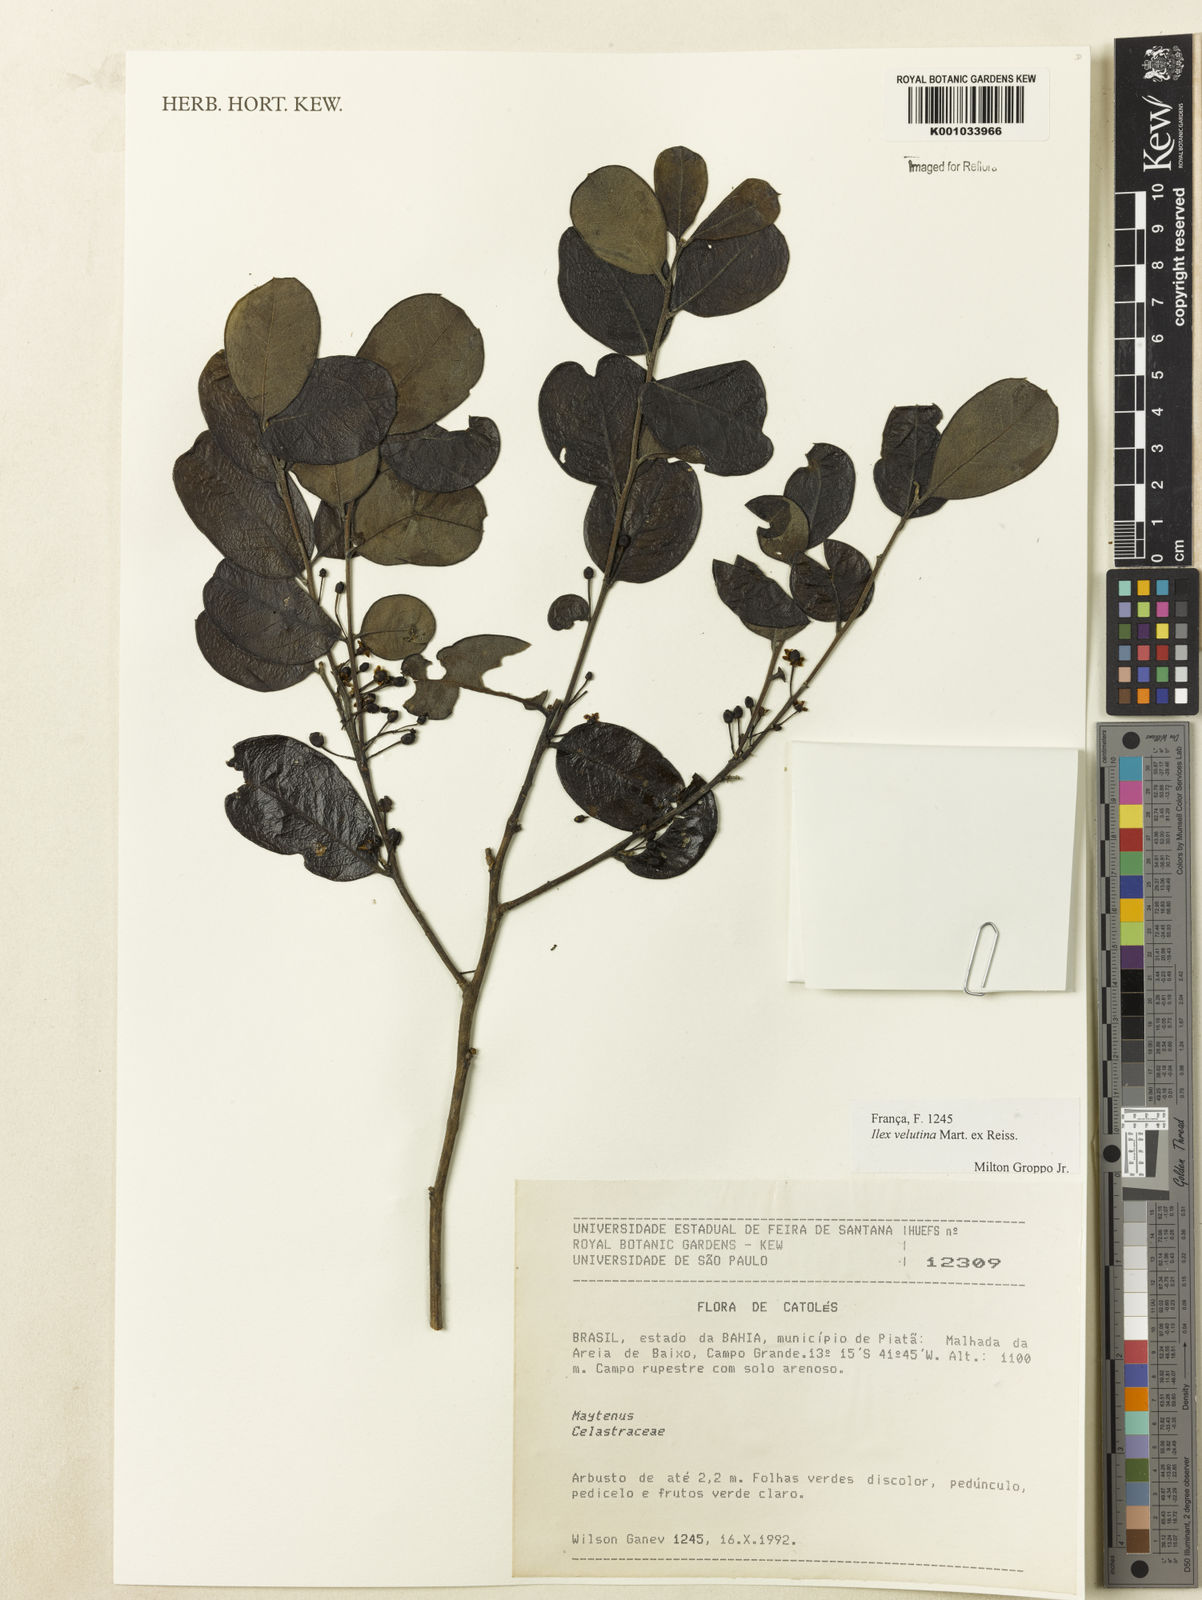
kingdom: Plantae
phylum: Tracheophyta
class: Magnoliopsida
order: Aquifoliales
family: Aquifoliaceae
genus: Ilex
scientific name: Ilex velutina
